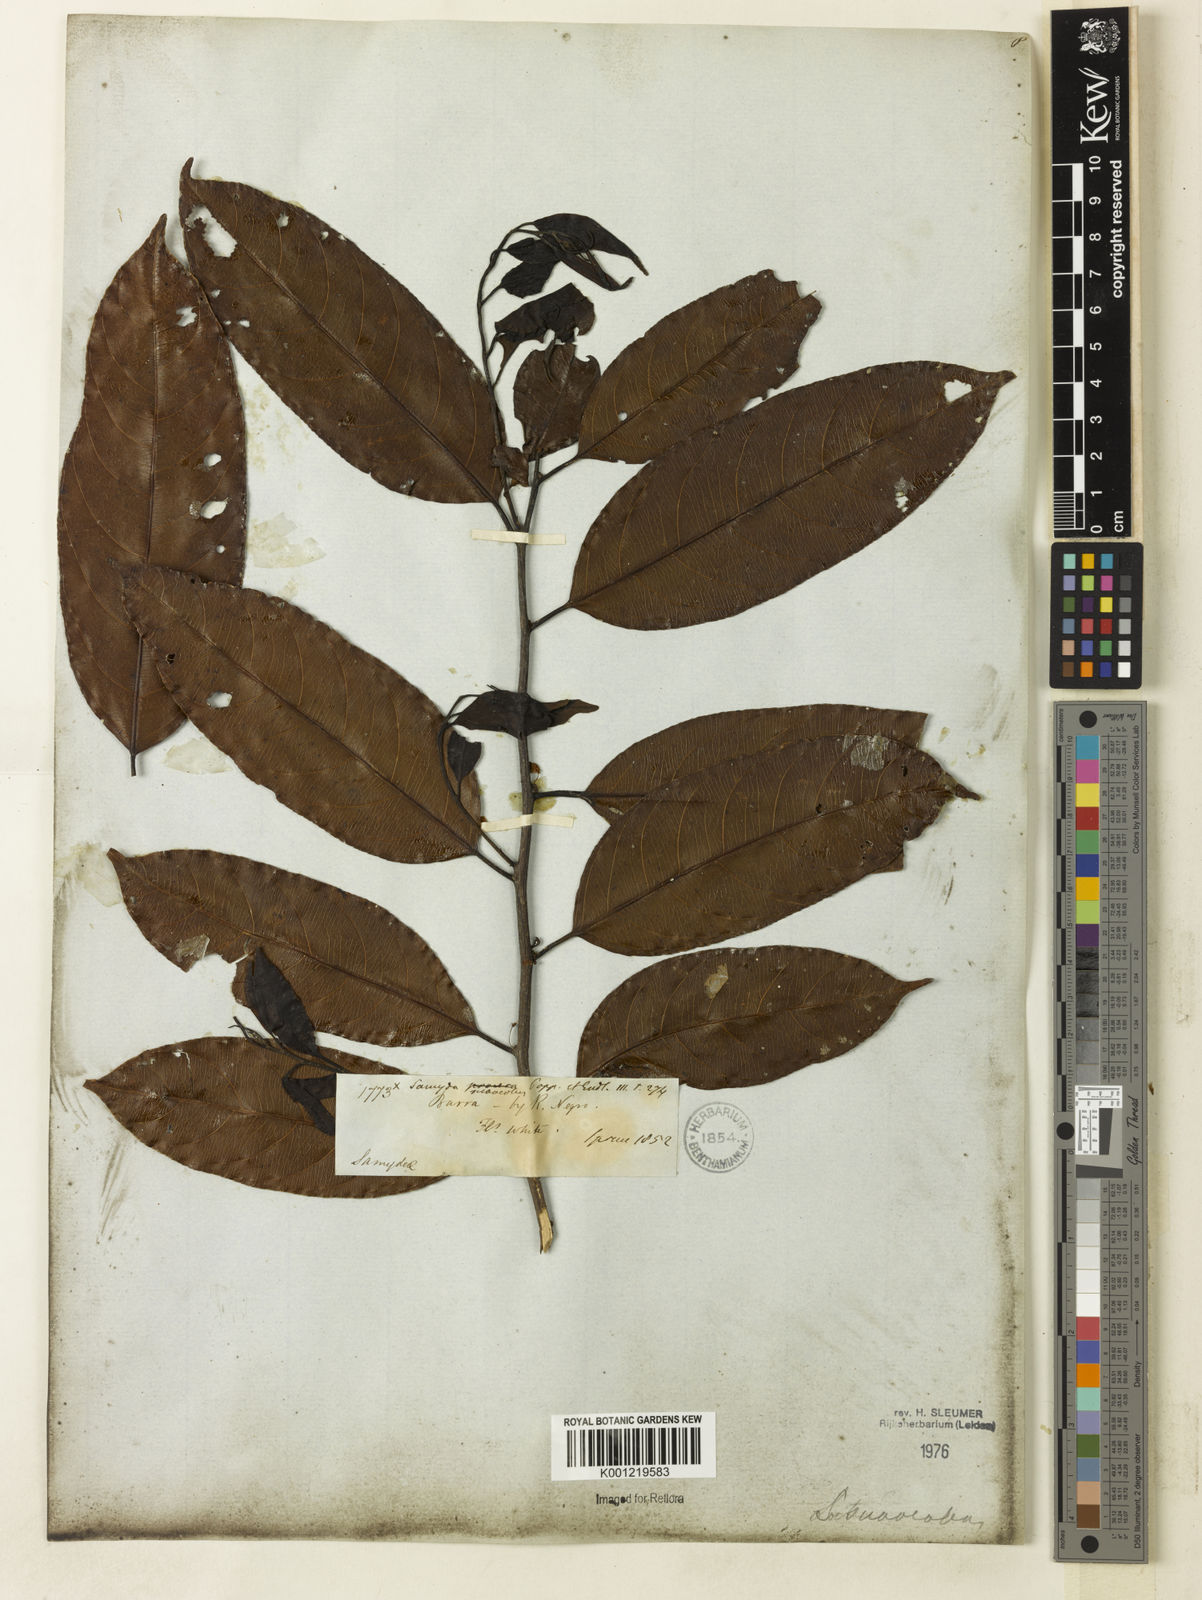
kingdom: Plantae
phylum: Tracheophyta
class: Magnoliopsida
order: Malpighiales
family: Salicaceae
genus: Casearia
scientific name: Casearia suaveolens
